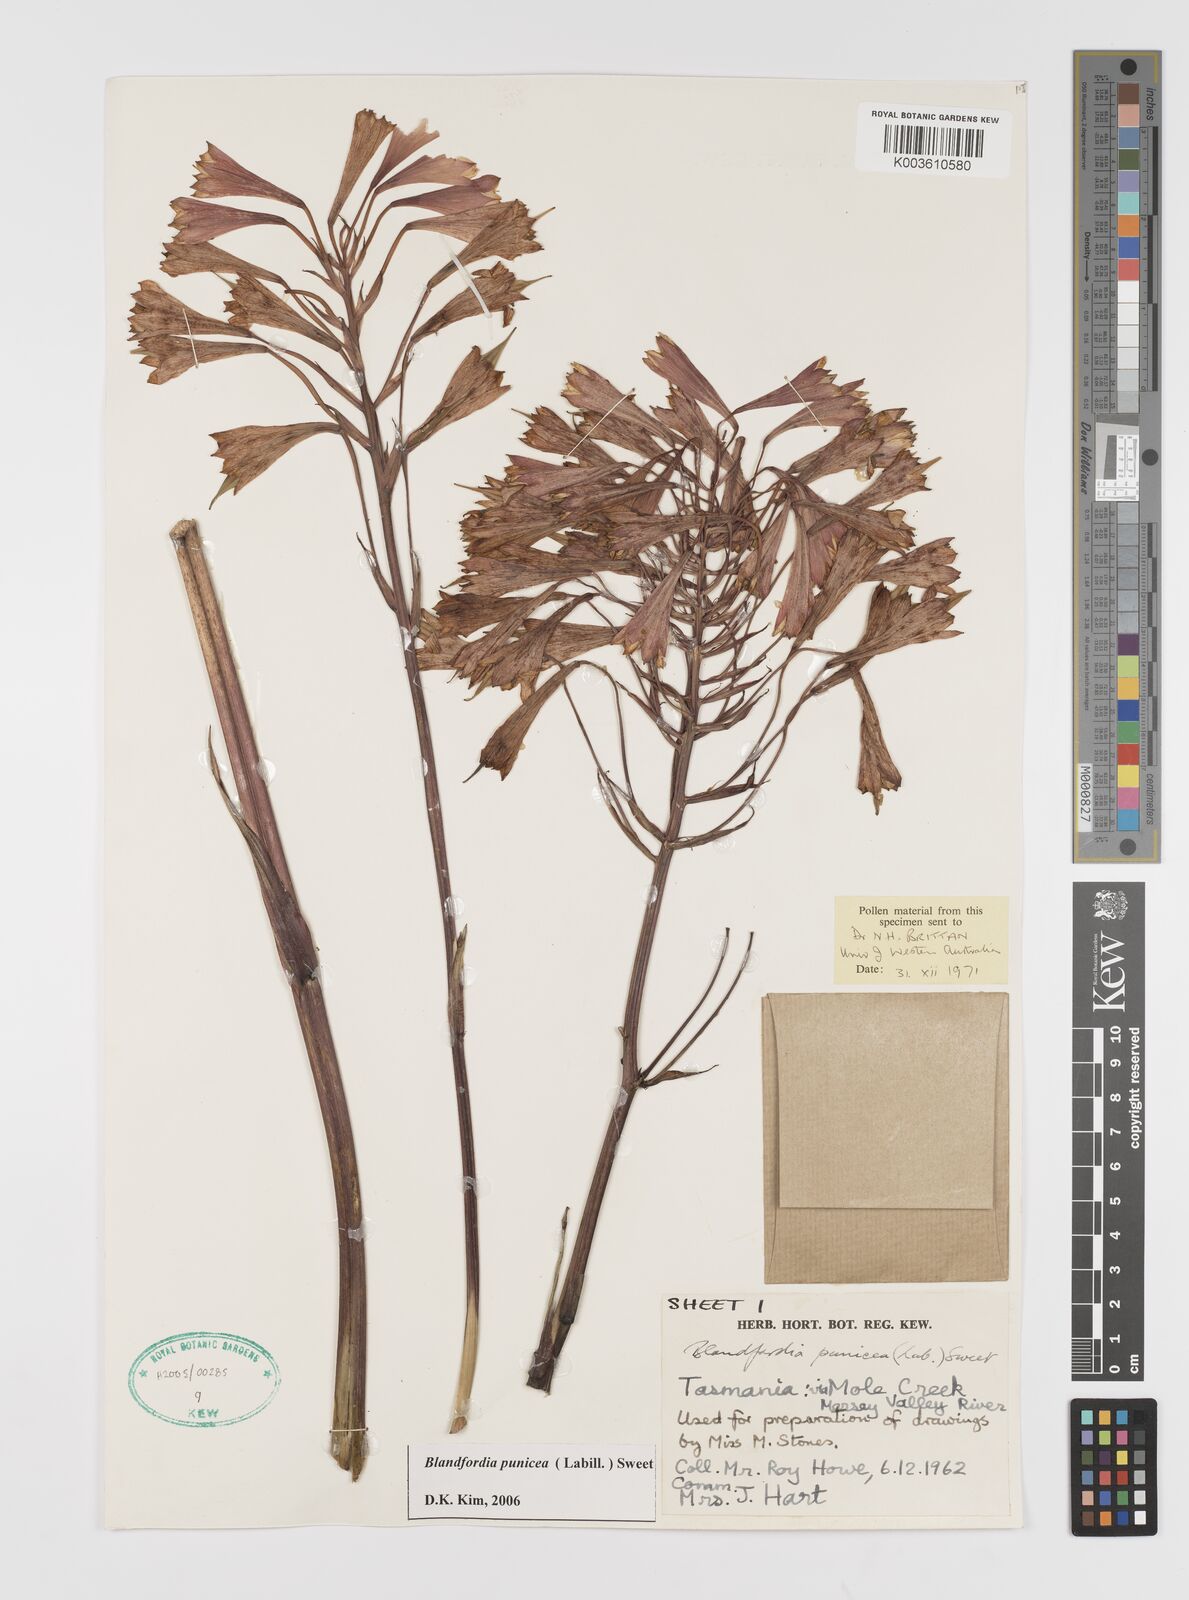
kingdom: Plantae
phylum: Tracheophyta
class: Liliopsida
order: Asparagales
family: Blandfordiaceae
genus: Blandfordia
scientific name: Blandfordia punicea
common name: Tasmanian christmas-bell
